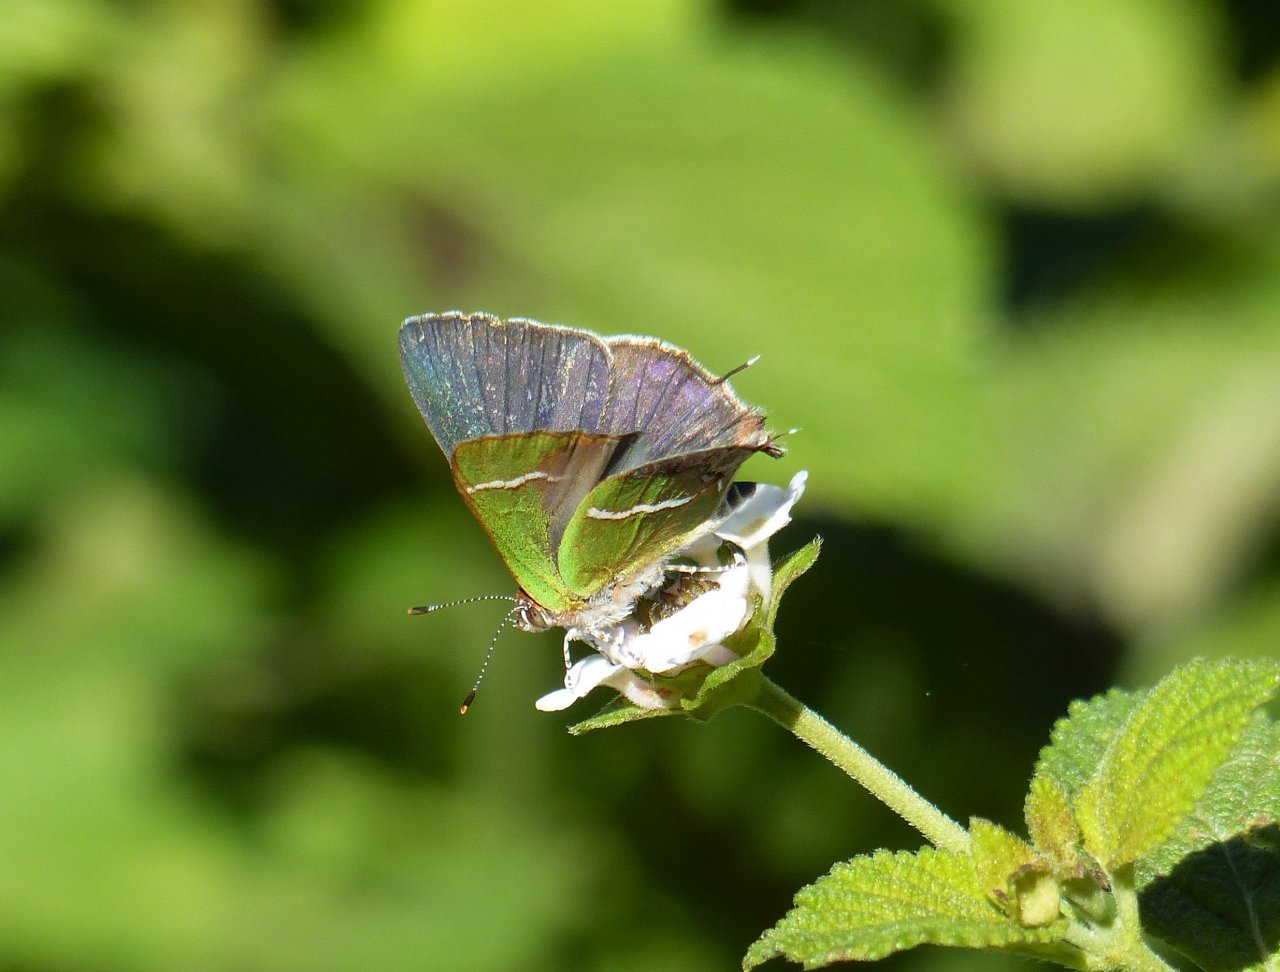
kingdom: Animalia
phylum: Arthropoda
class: Insecta
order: Lepidoptera
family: Lycaenidae
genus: Chlorostrymon
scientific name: Chlorostrymon simaethis
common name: Silver-banded Hairstreak
